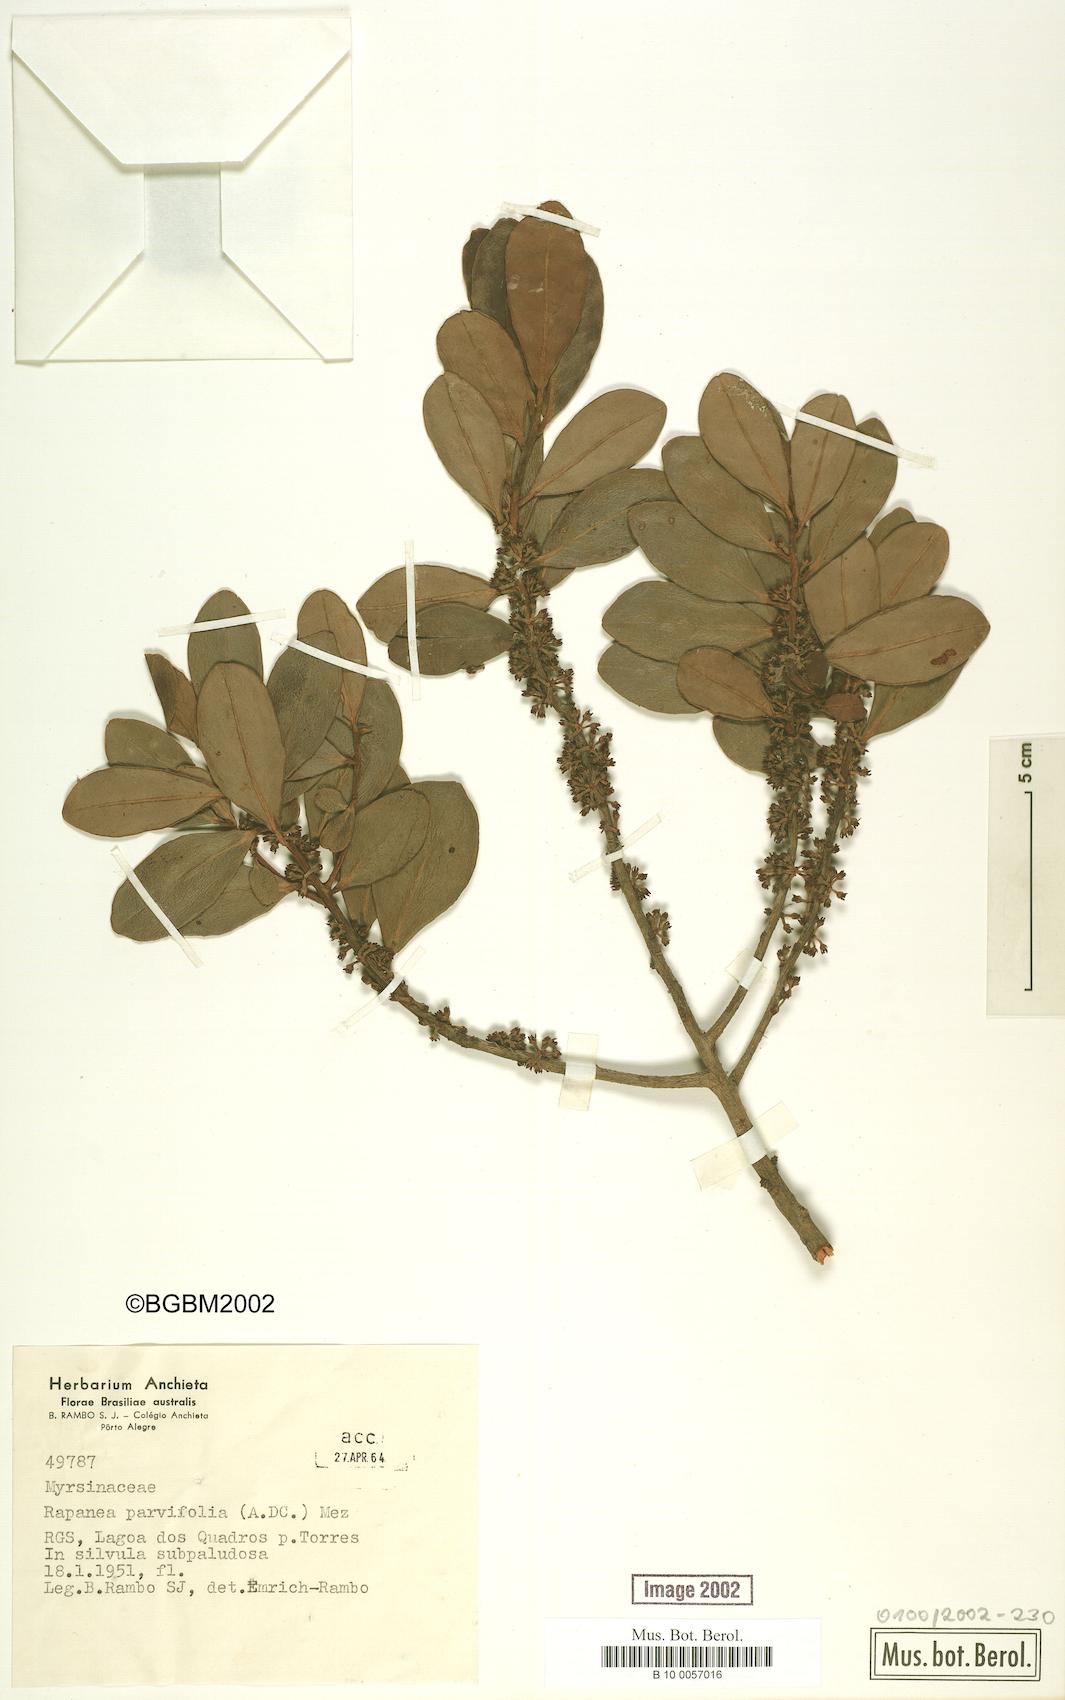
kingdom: Plantae
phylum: Tracheophyta
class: Magnoliopsida
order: Ericales
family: Primulaceae
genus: Myrsine
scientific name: Myrsine parvifolia
